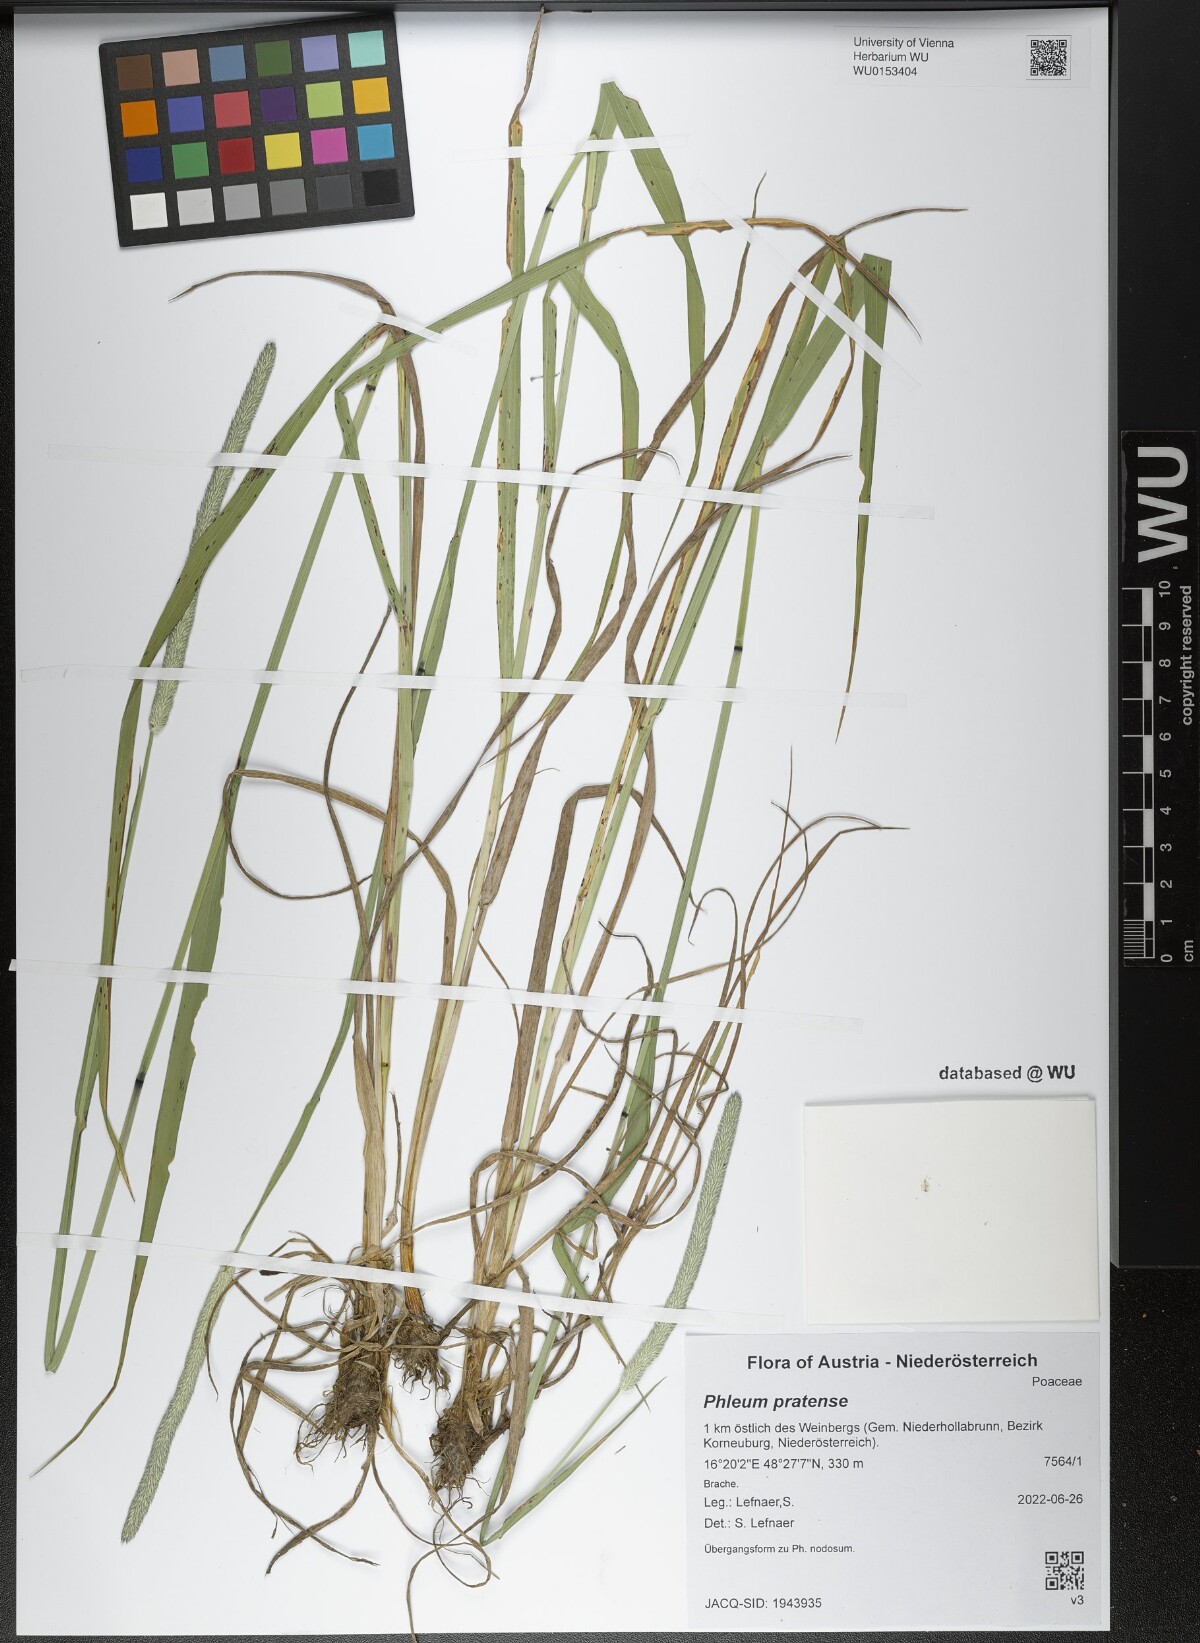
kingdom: Plantae
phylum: Tracheophyta
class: Liliopsida
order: Poales
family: Poaceae
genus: Phleum
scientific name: Phleum pratense
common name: Timothy grass
